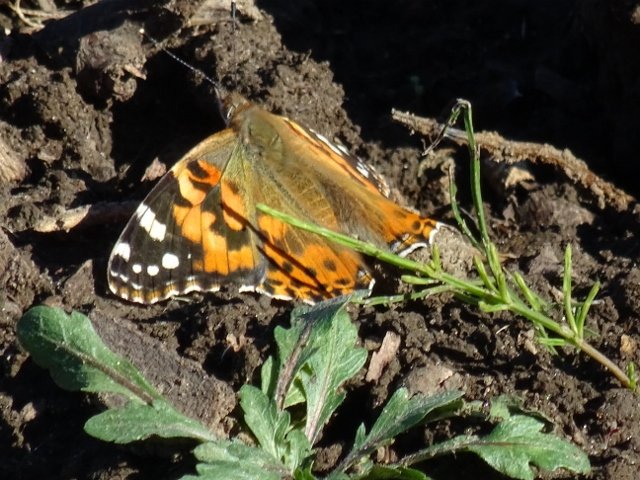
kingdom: Animalia
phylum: Arthropoda
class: Insecta
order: Lepidoptera
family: Nymphalidae
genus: Vanessa
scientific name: Vanessa cardui
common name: Painted Lady
